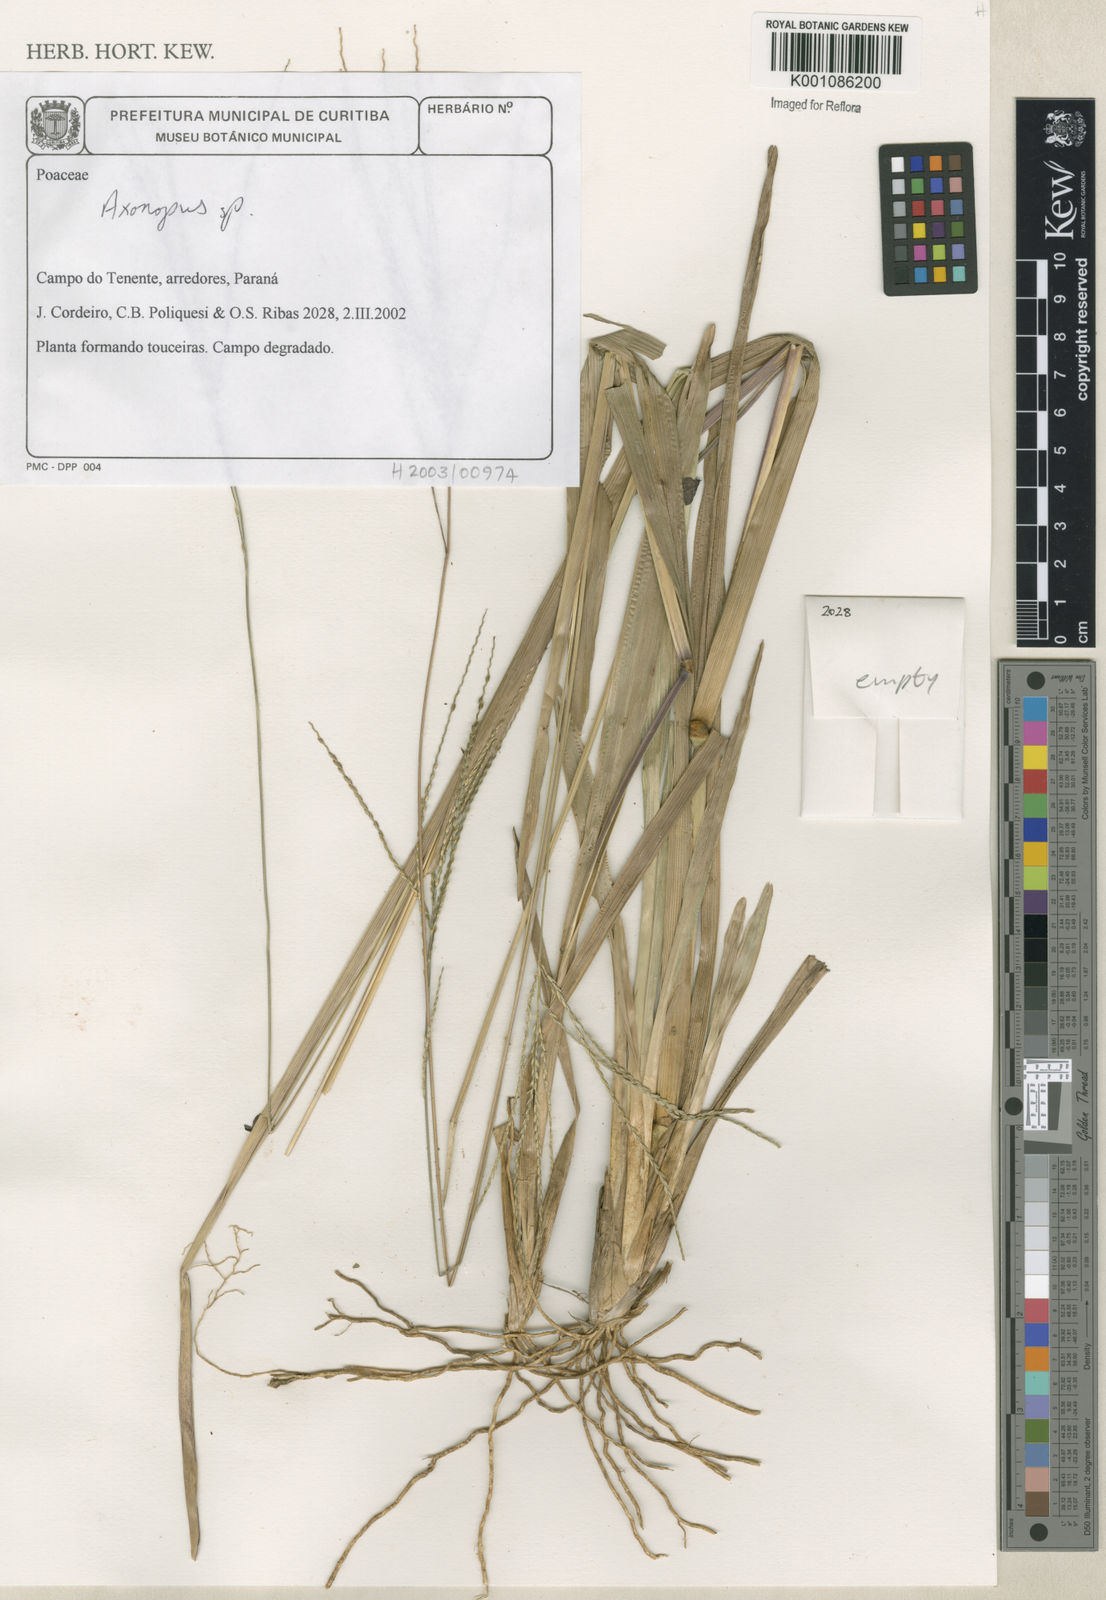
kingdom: Plantae
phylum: Tracheophyta
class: Liliopsida
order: Poales
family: Poaceae
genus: Axonopus
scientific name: Axonopus
